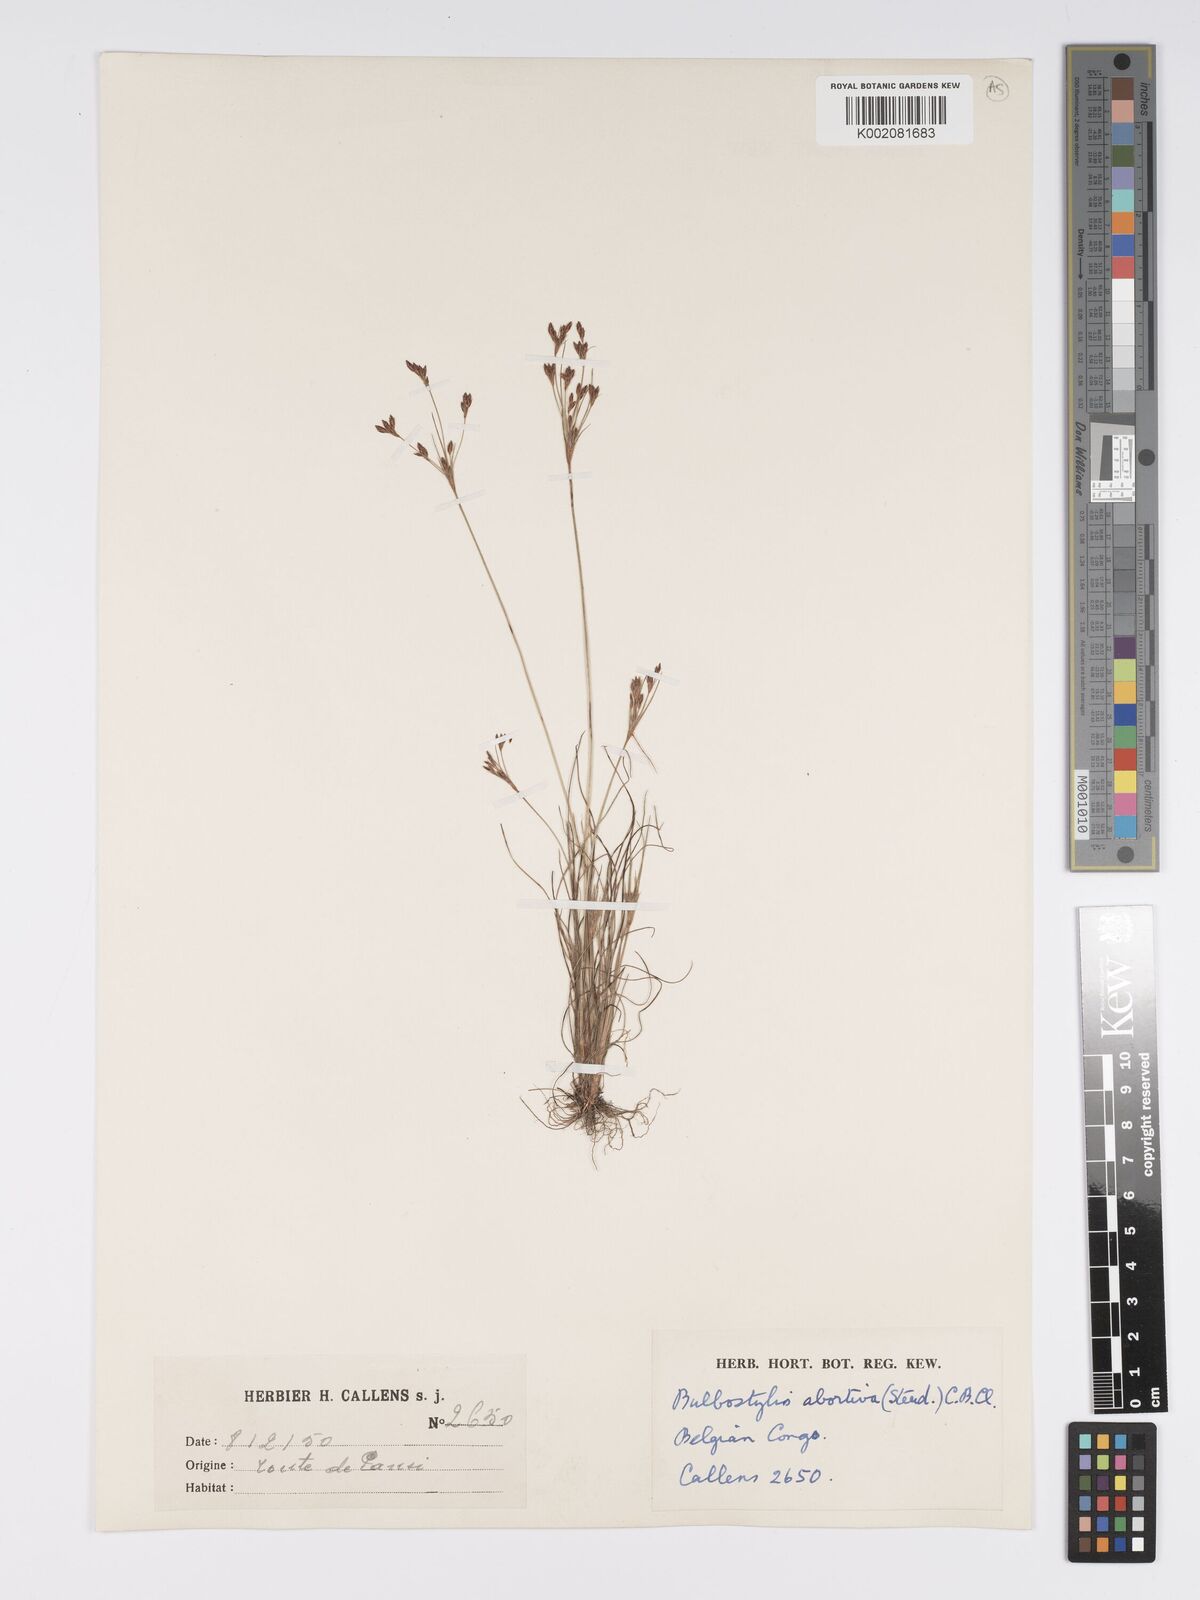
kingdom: Plantae
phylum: Tracheophyta
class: Liliopsida
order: Poales
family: Cyperaceae
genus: Bulbostylis
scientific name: Bulbostylis abortiva
